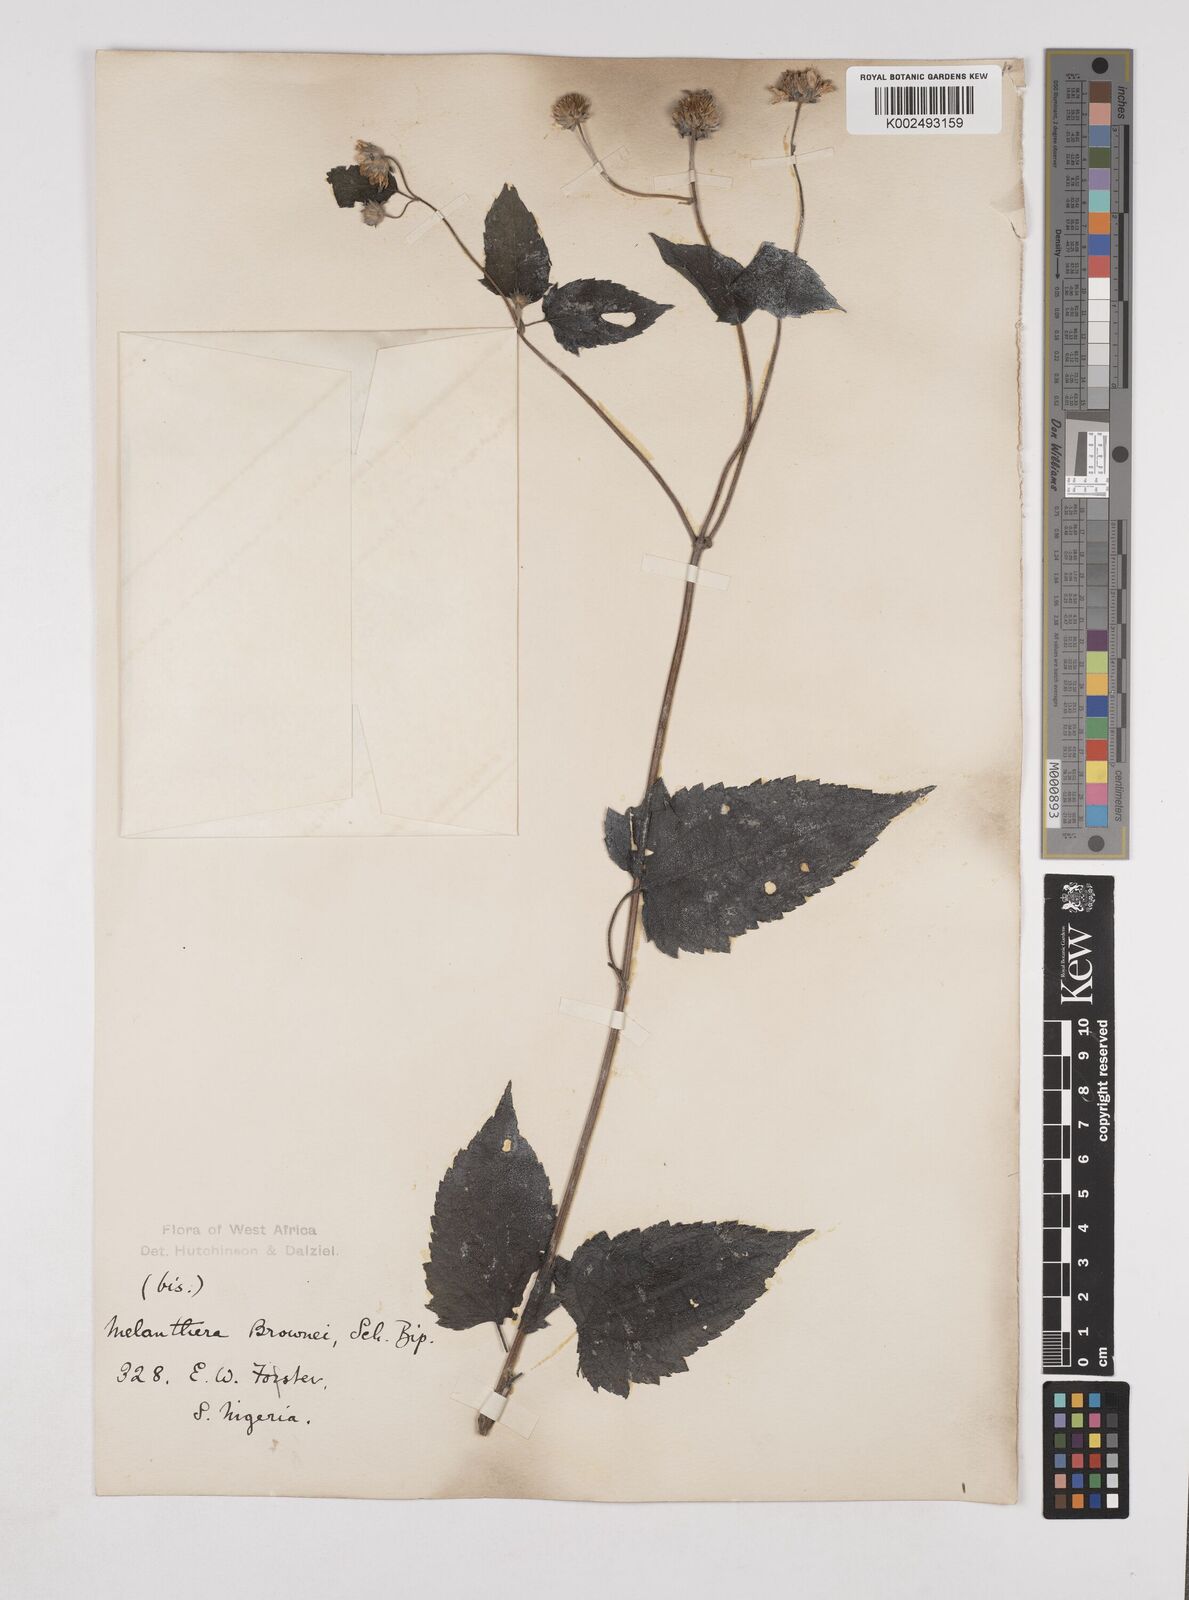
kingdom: Plantae
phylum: Tracheophyta
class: Magnoliopsida
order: Asterales
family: Asteraceae
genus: Lipotriche
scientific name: Lipotriche scandens
